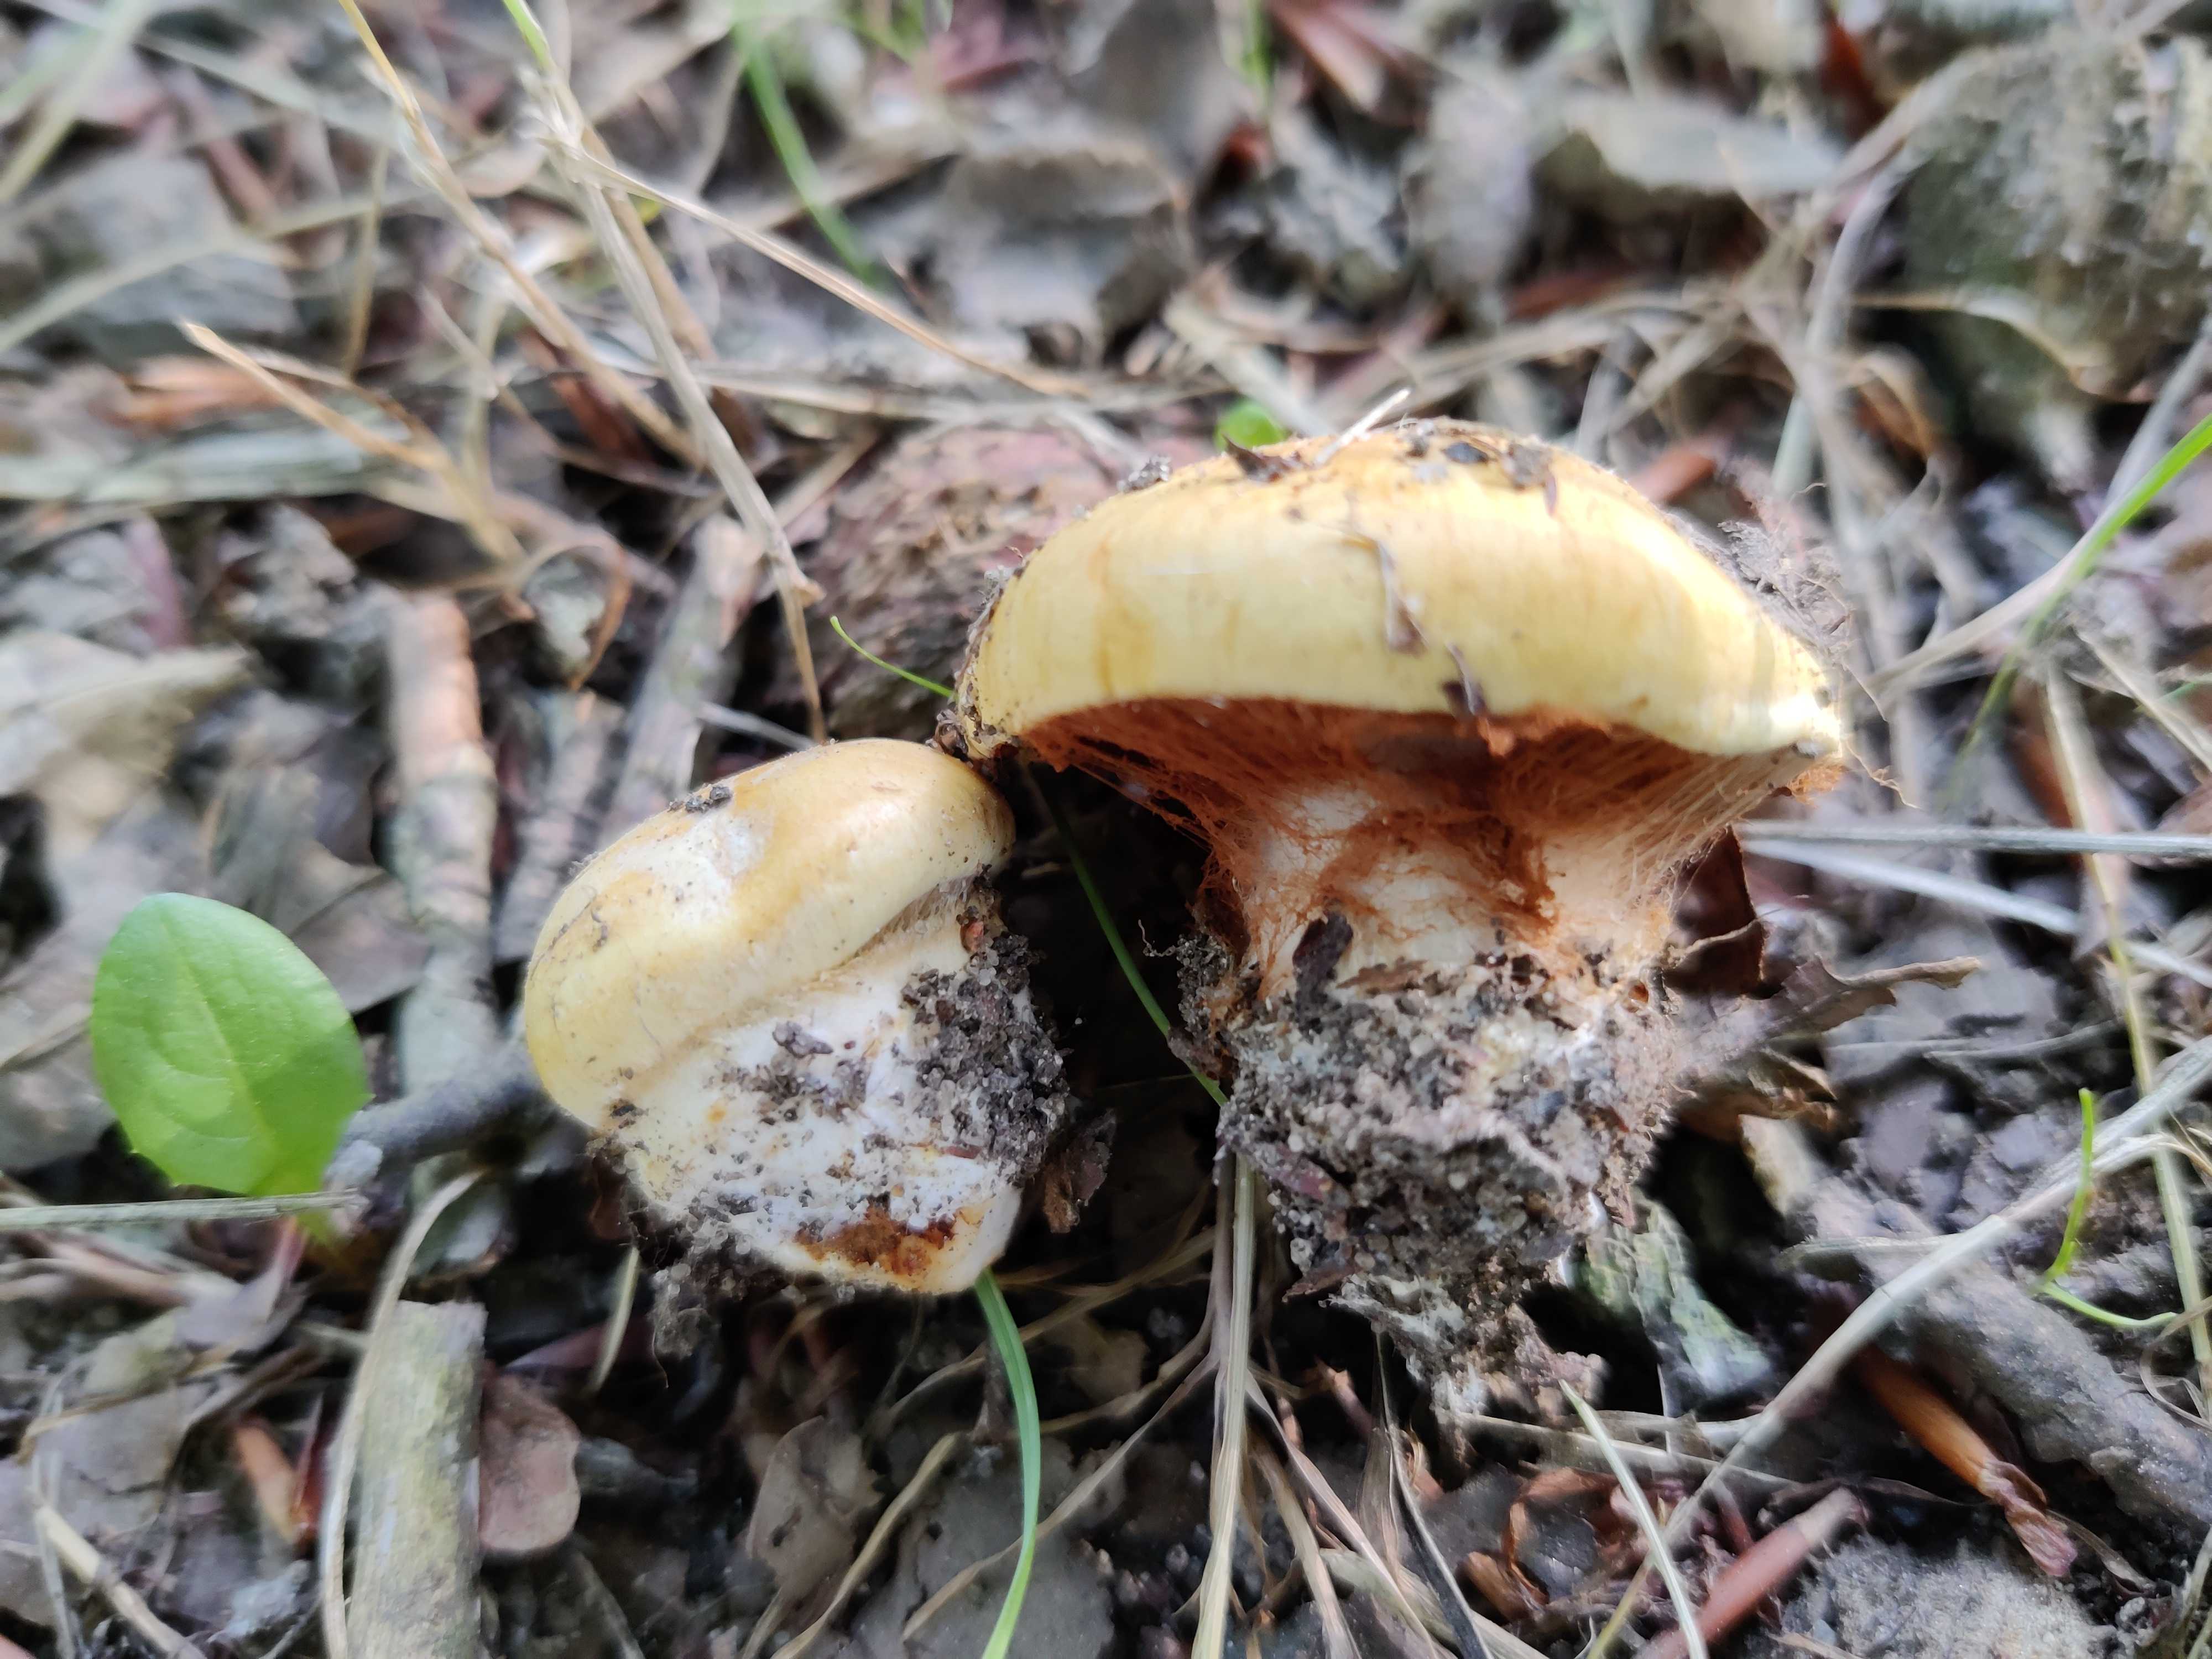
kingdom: Fungi
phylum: Basidiomycota
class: Agaricomycetes
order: Agaricales
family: Cortinariaceae
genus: Calonarius
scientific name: Calonarius cisticola
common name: cistus-slørhat
